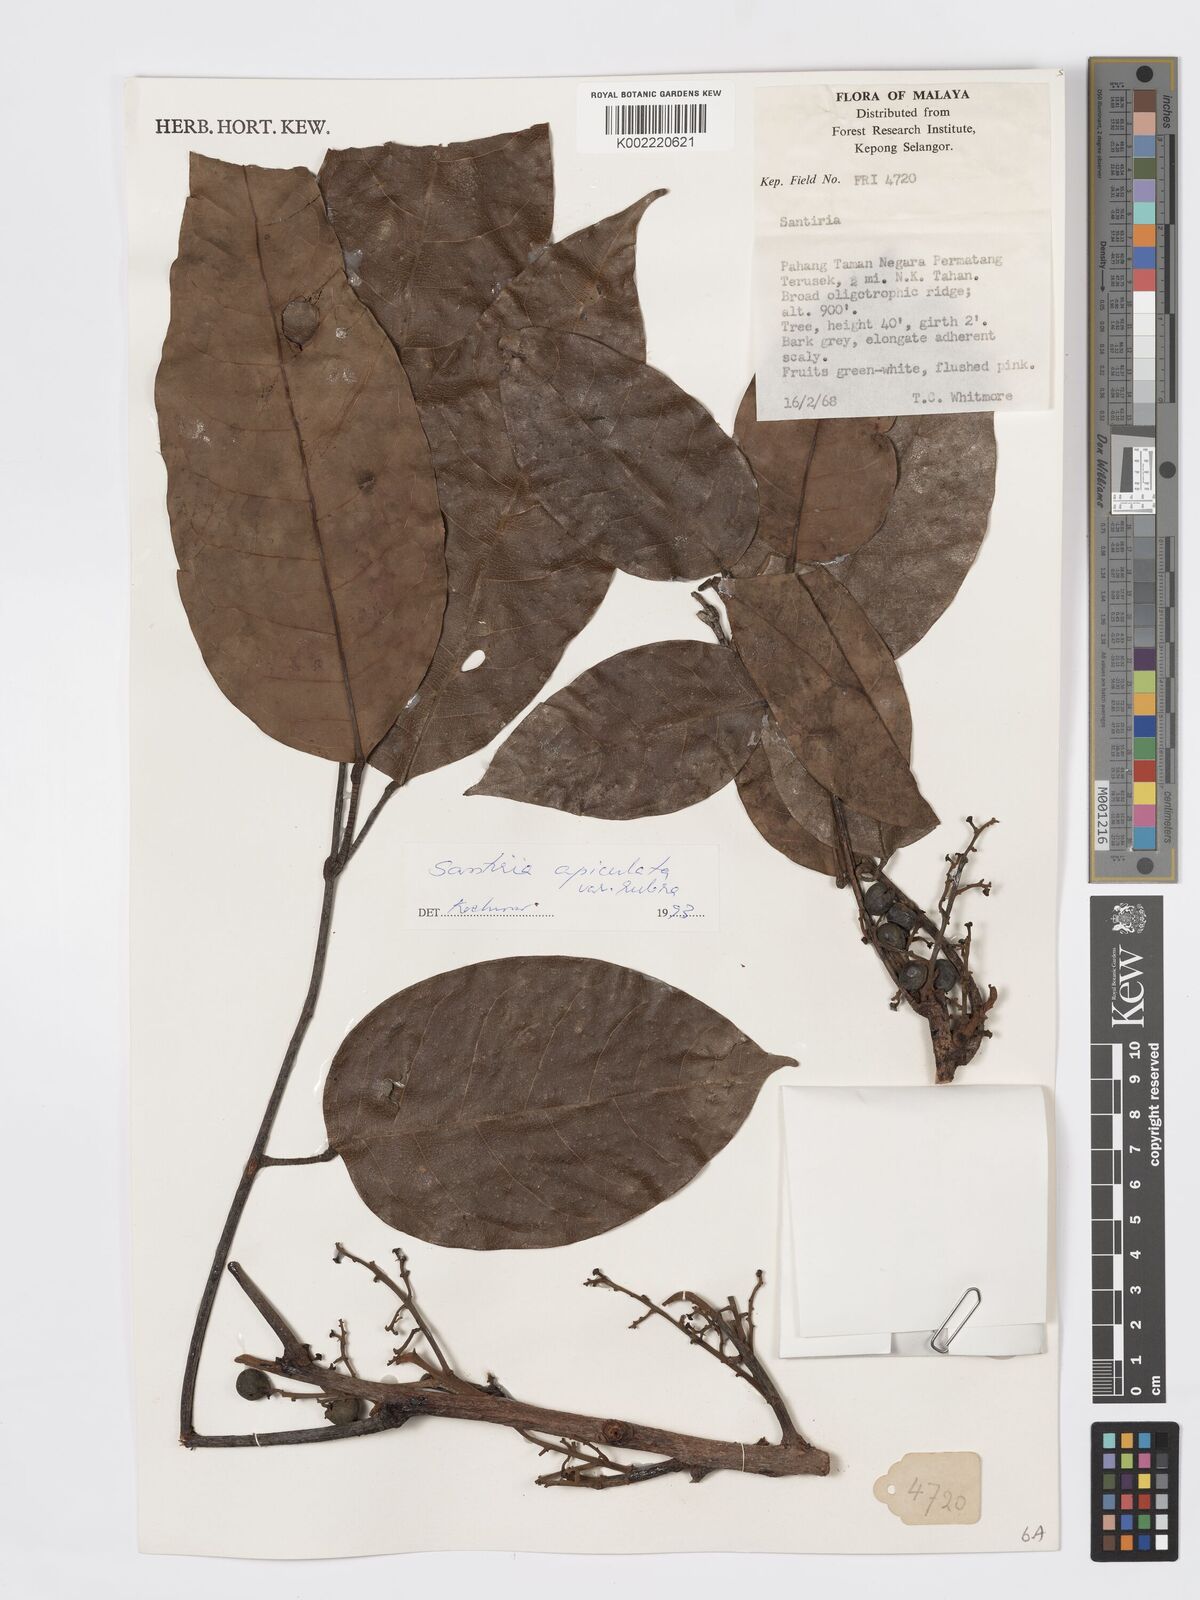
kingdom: Plantae
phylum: Tracheophyta
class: Magnoliopsida
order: Sapindales
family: Burseraceae
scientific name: Burseraceae
